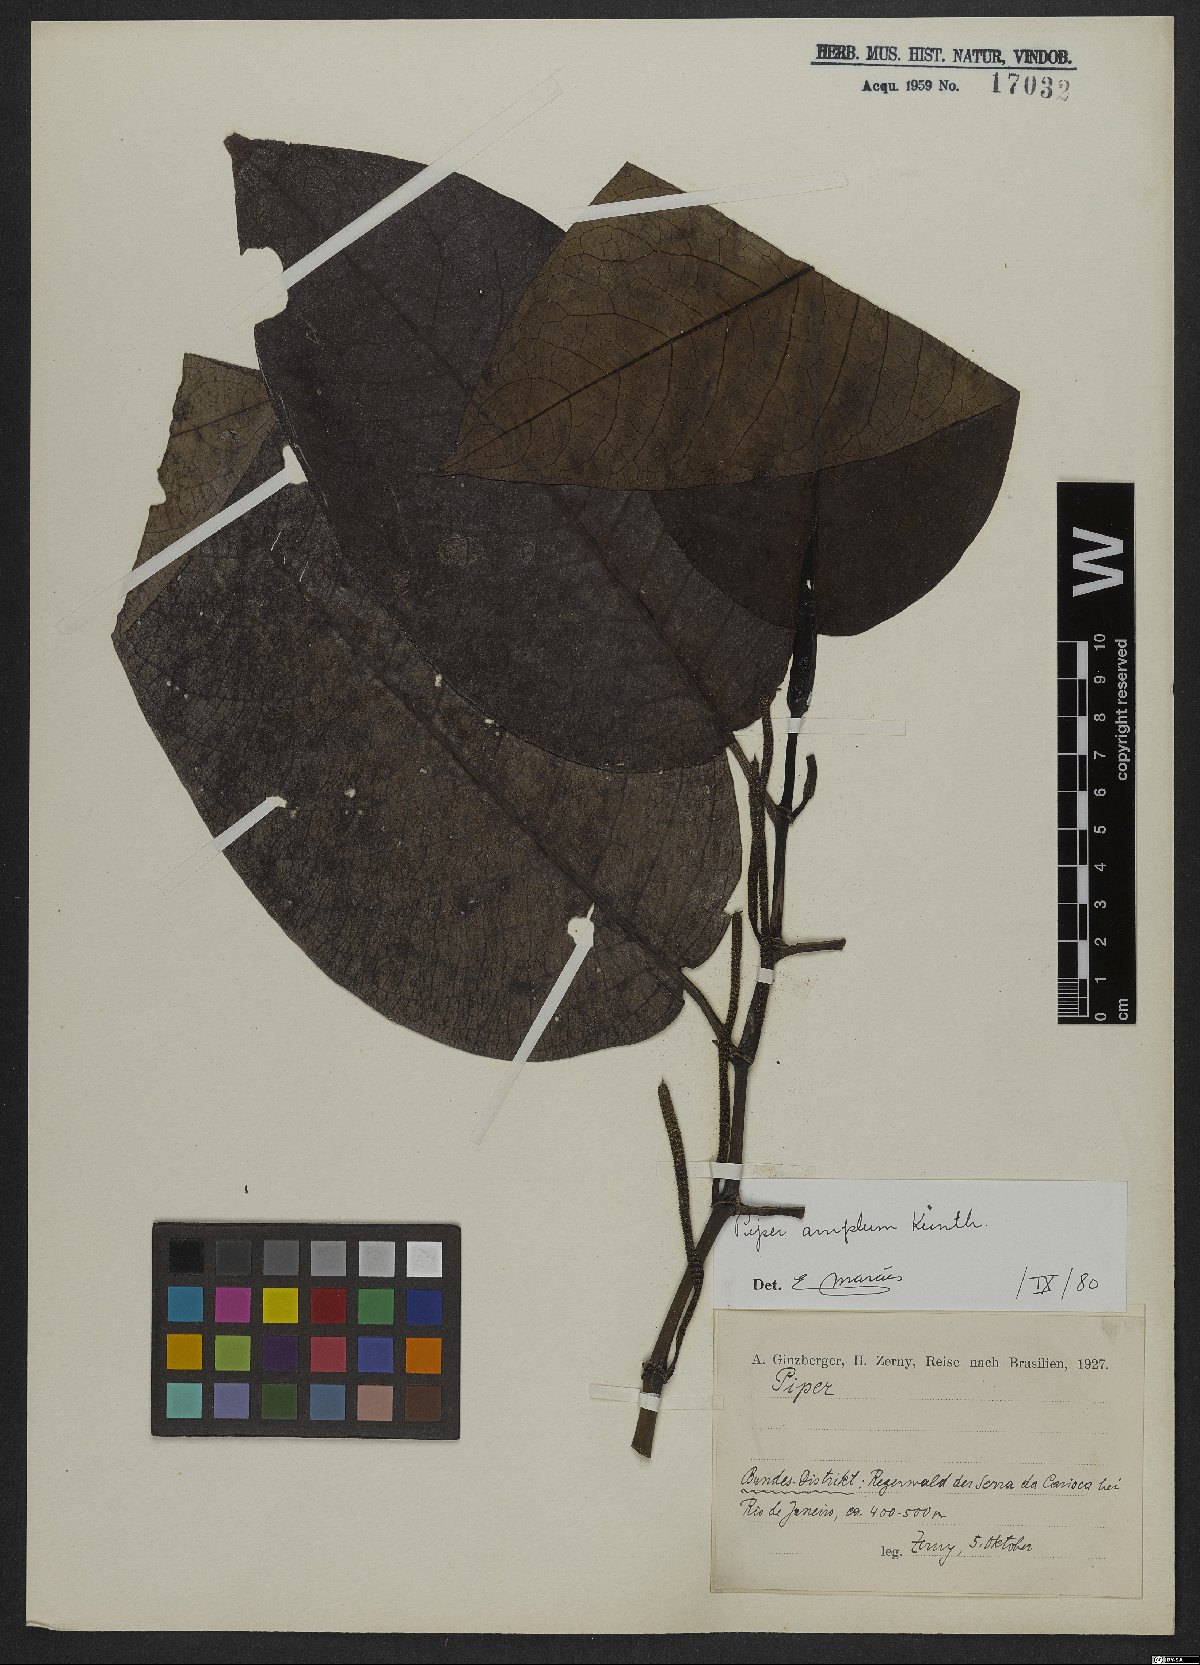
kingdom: Plantae
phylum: Tracheophyta
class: Magnoliopsida
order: Piperales
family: Piperaceae
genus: Piper
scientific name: Piper fluminense
